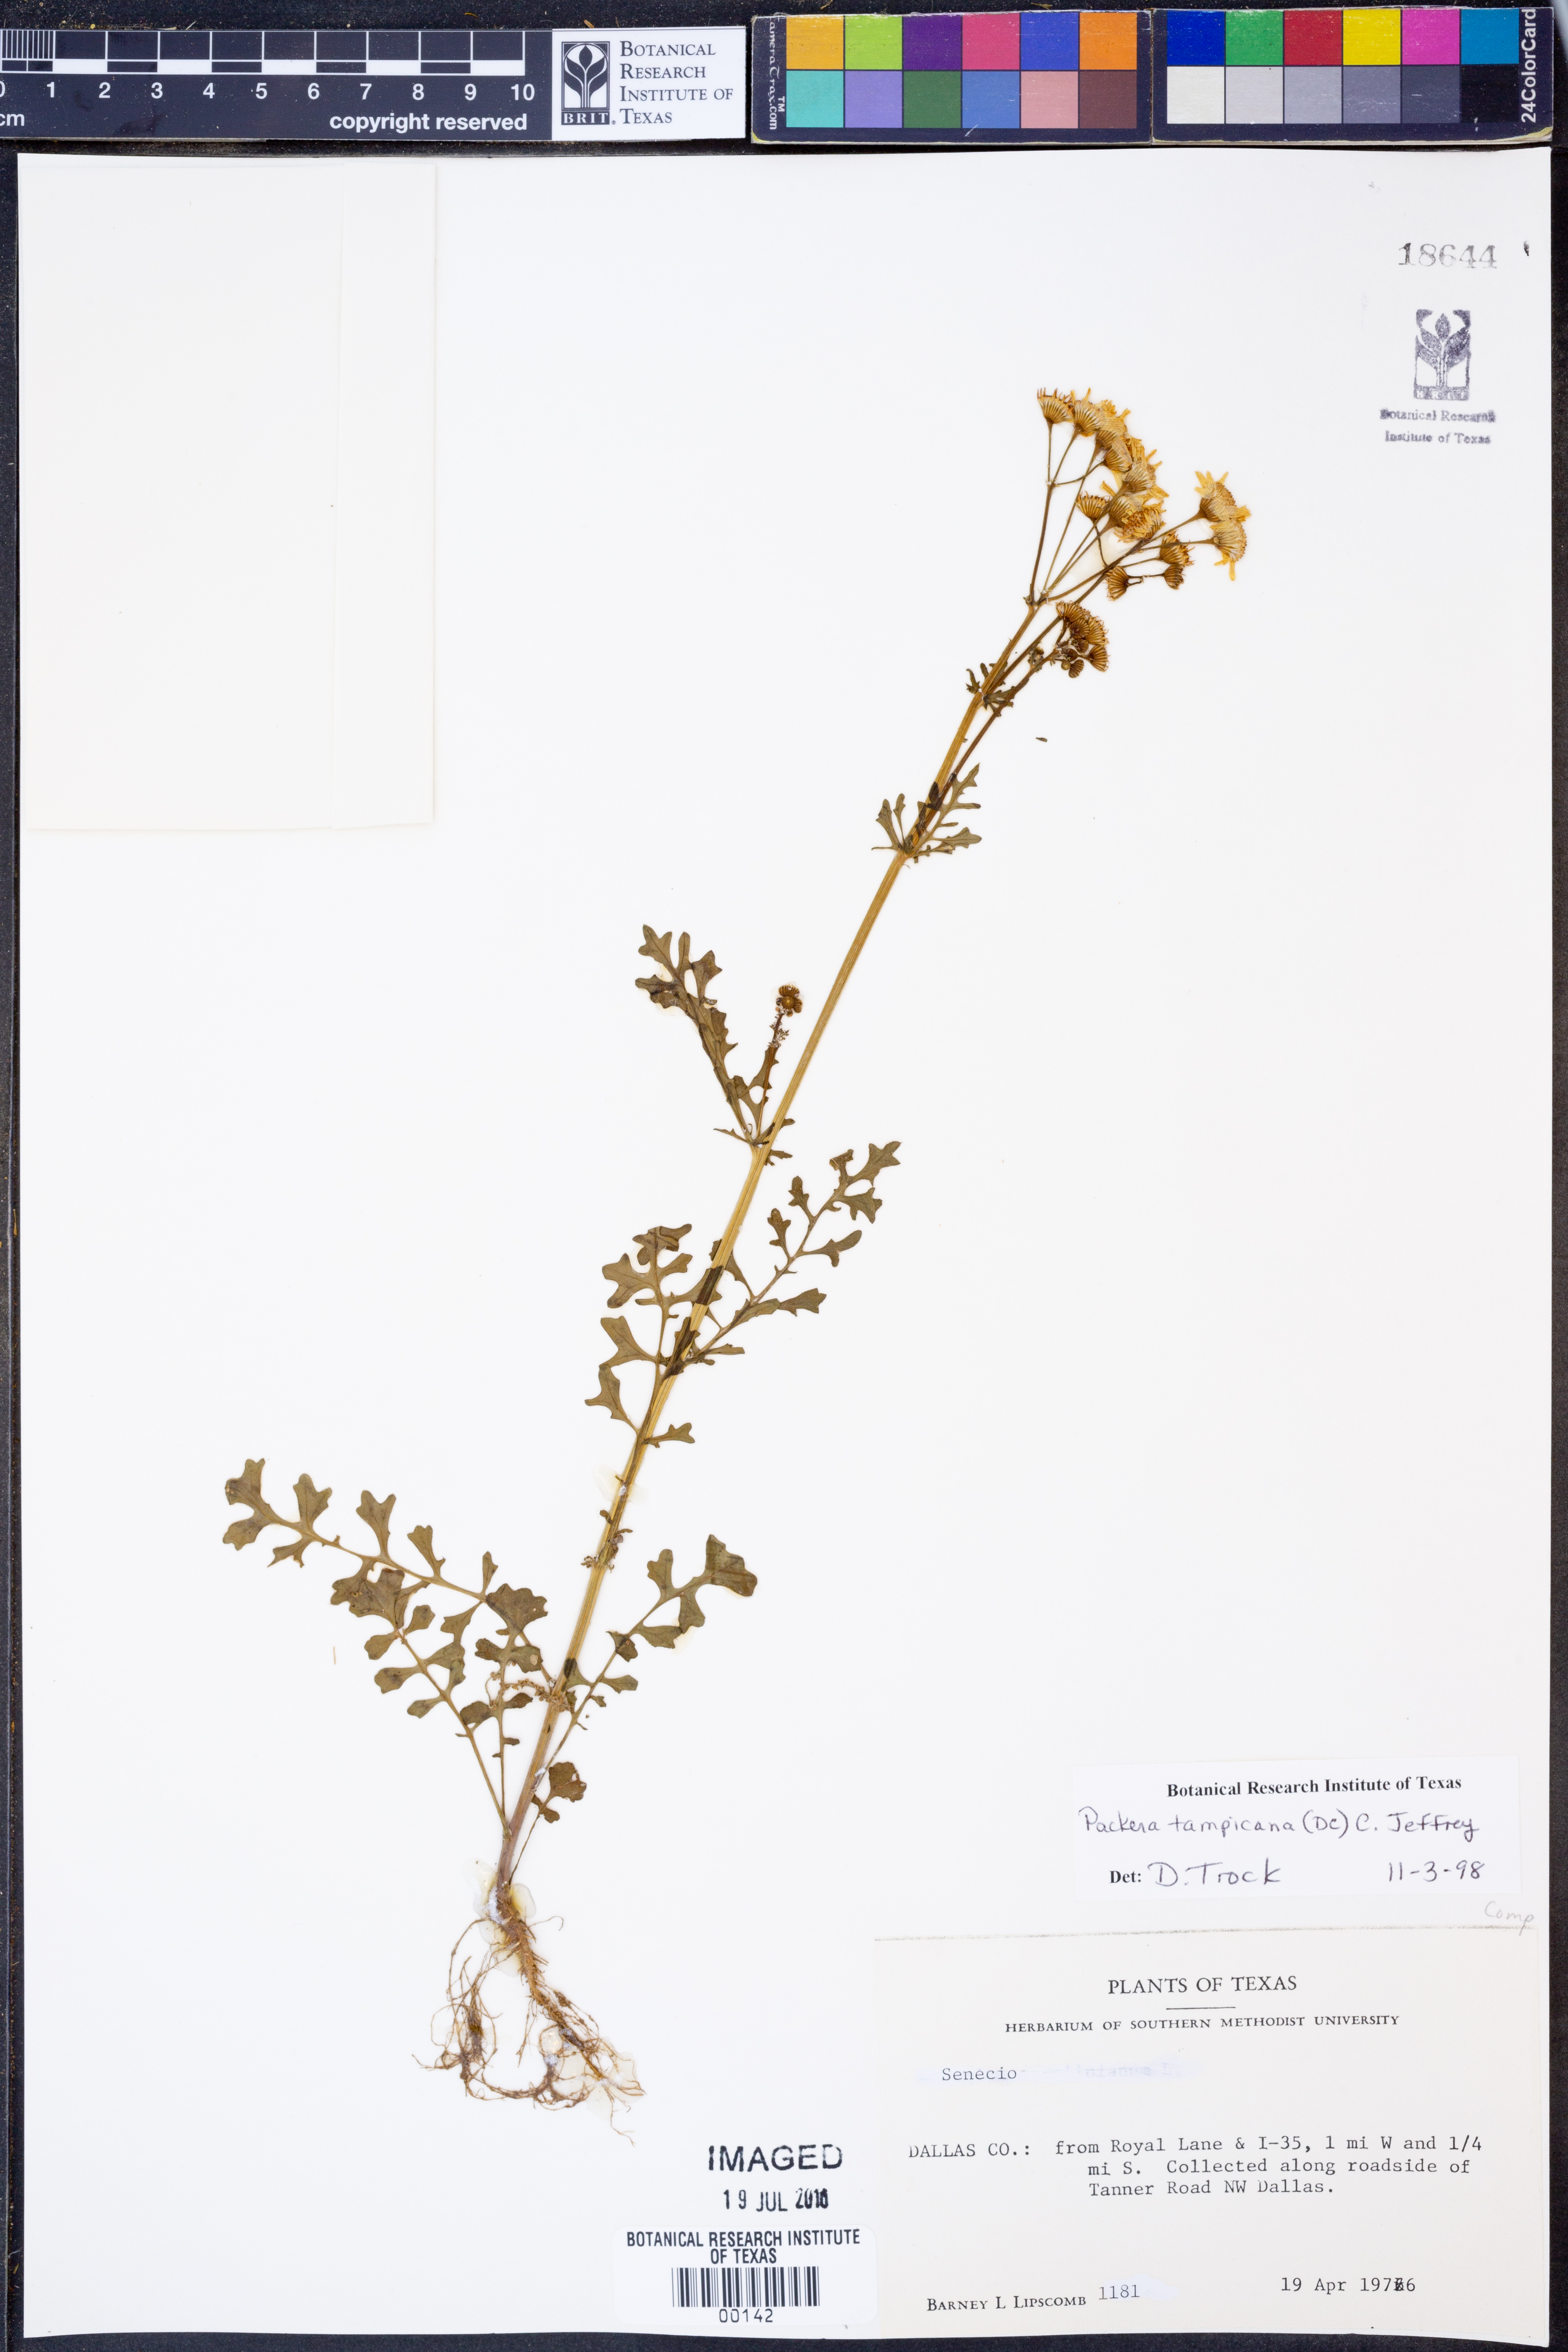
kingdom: Plantae
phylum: Tracheophyta
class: Magnoliopsida
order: Asterales
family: Asteraceae
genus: Packera
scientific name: Packera tampicana
